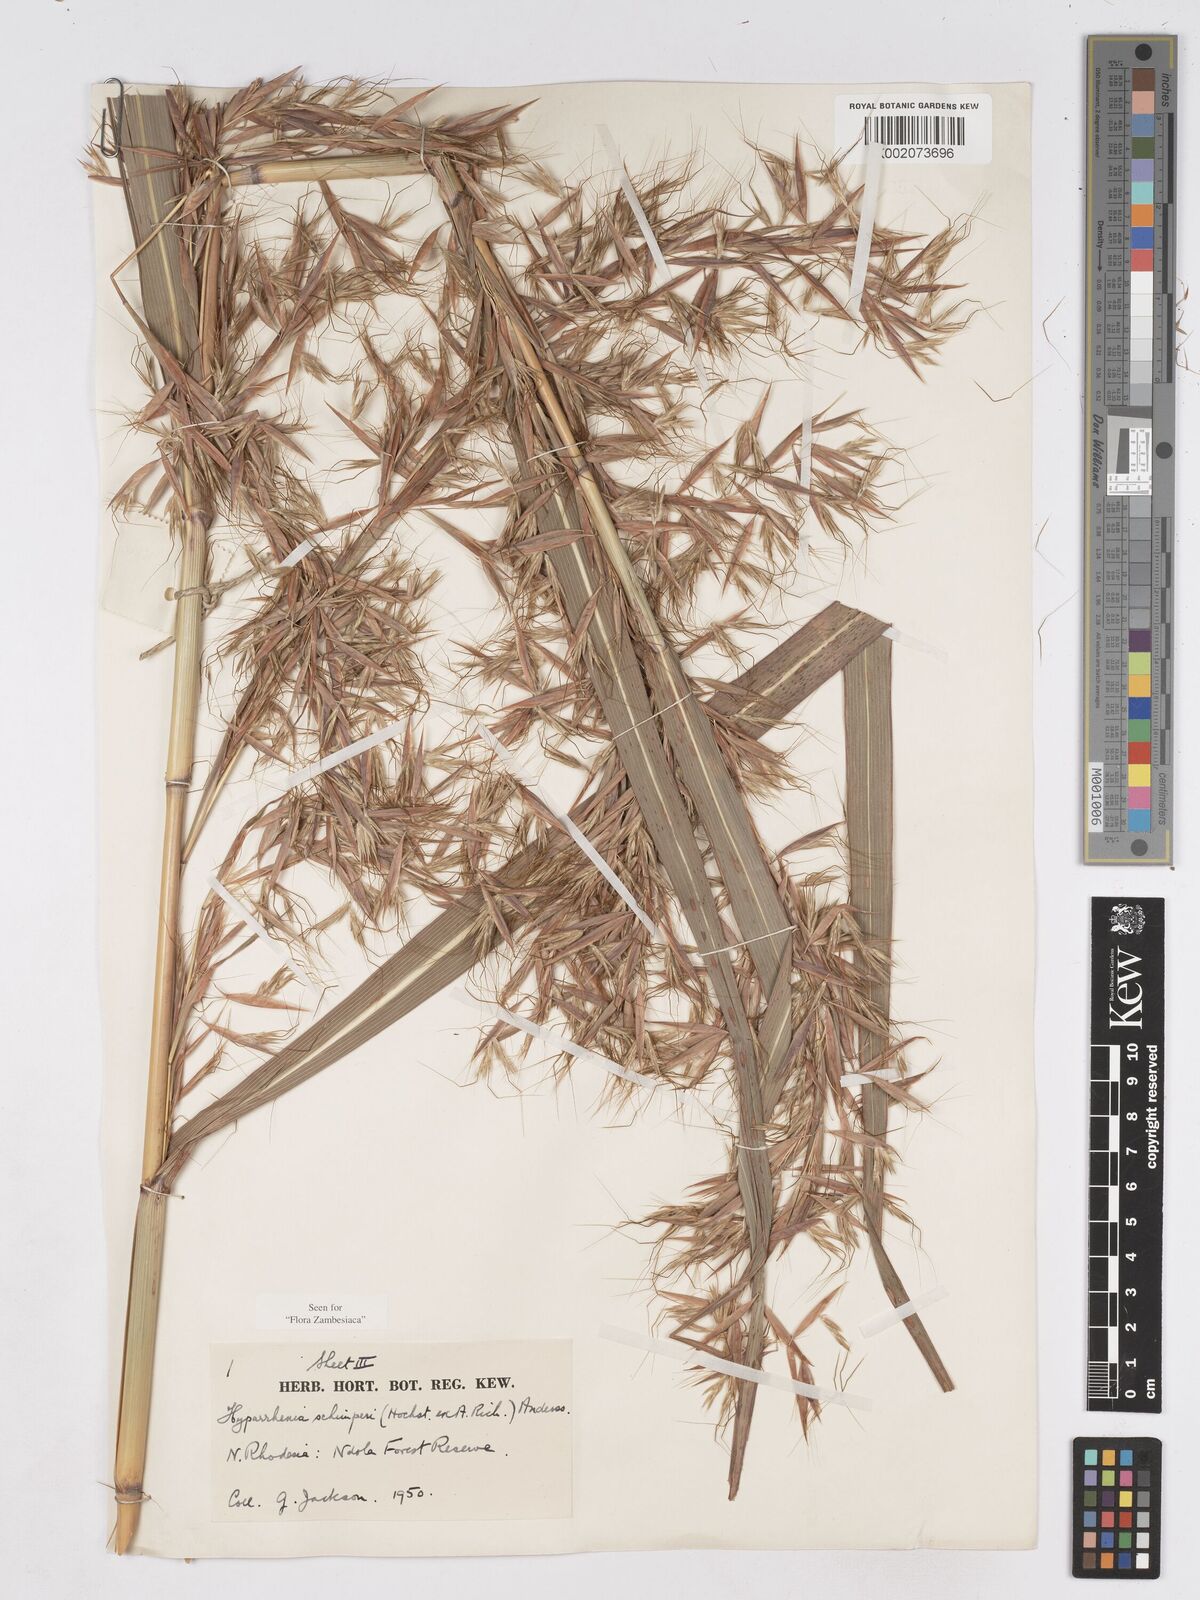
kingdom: Plantae
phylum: Tracheophyta
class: Liliopsida
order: Poales
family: Poaceae
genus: Hyparrhenia
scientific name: Hyparrhenia schimperi
